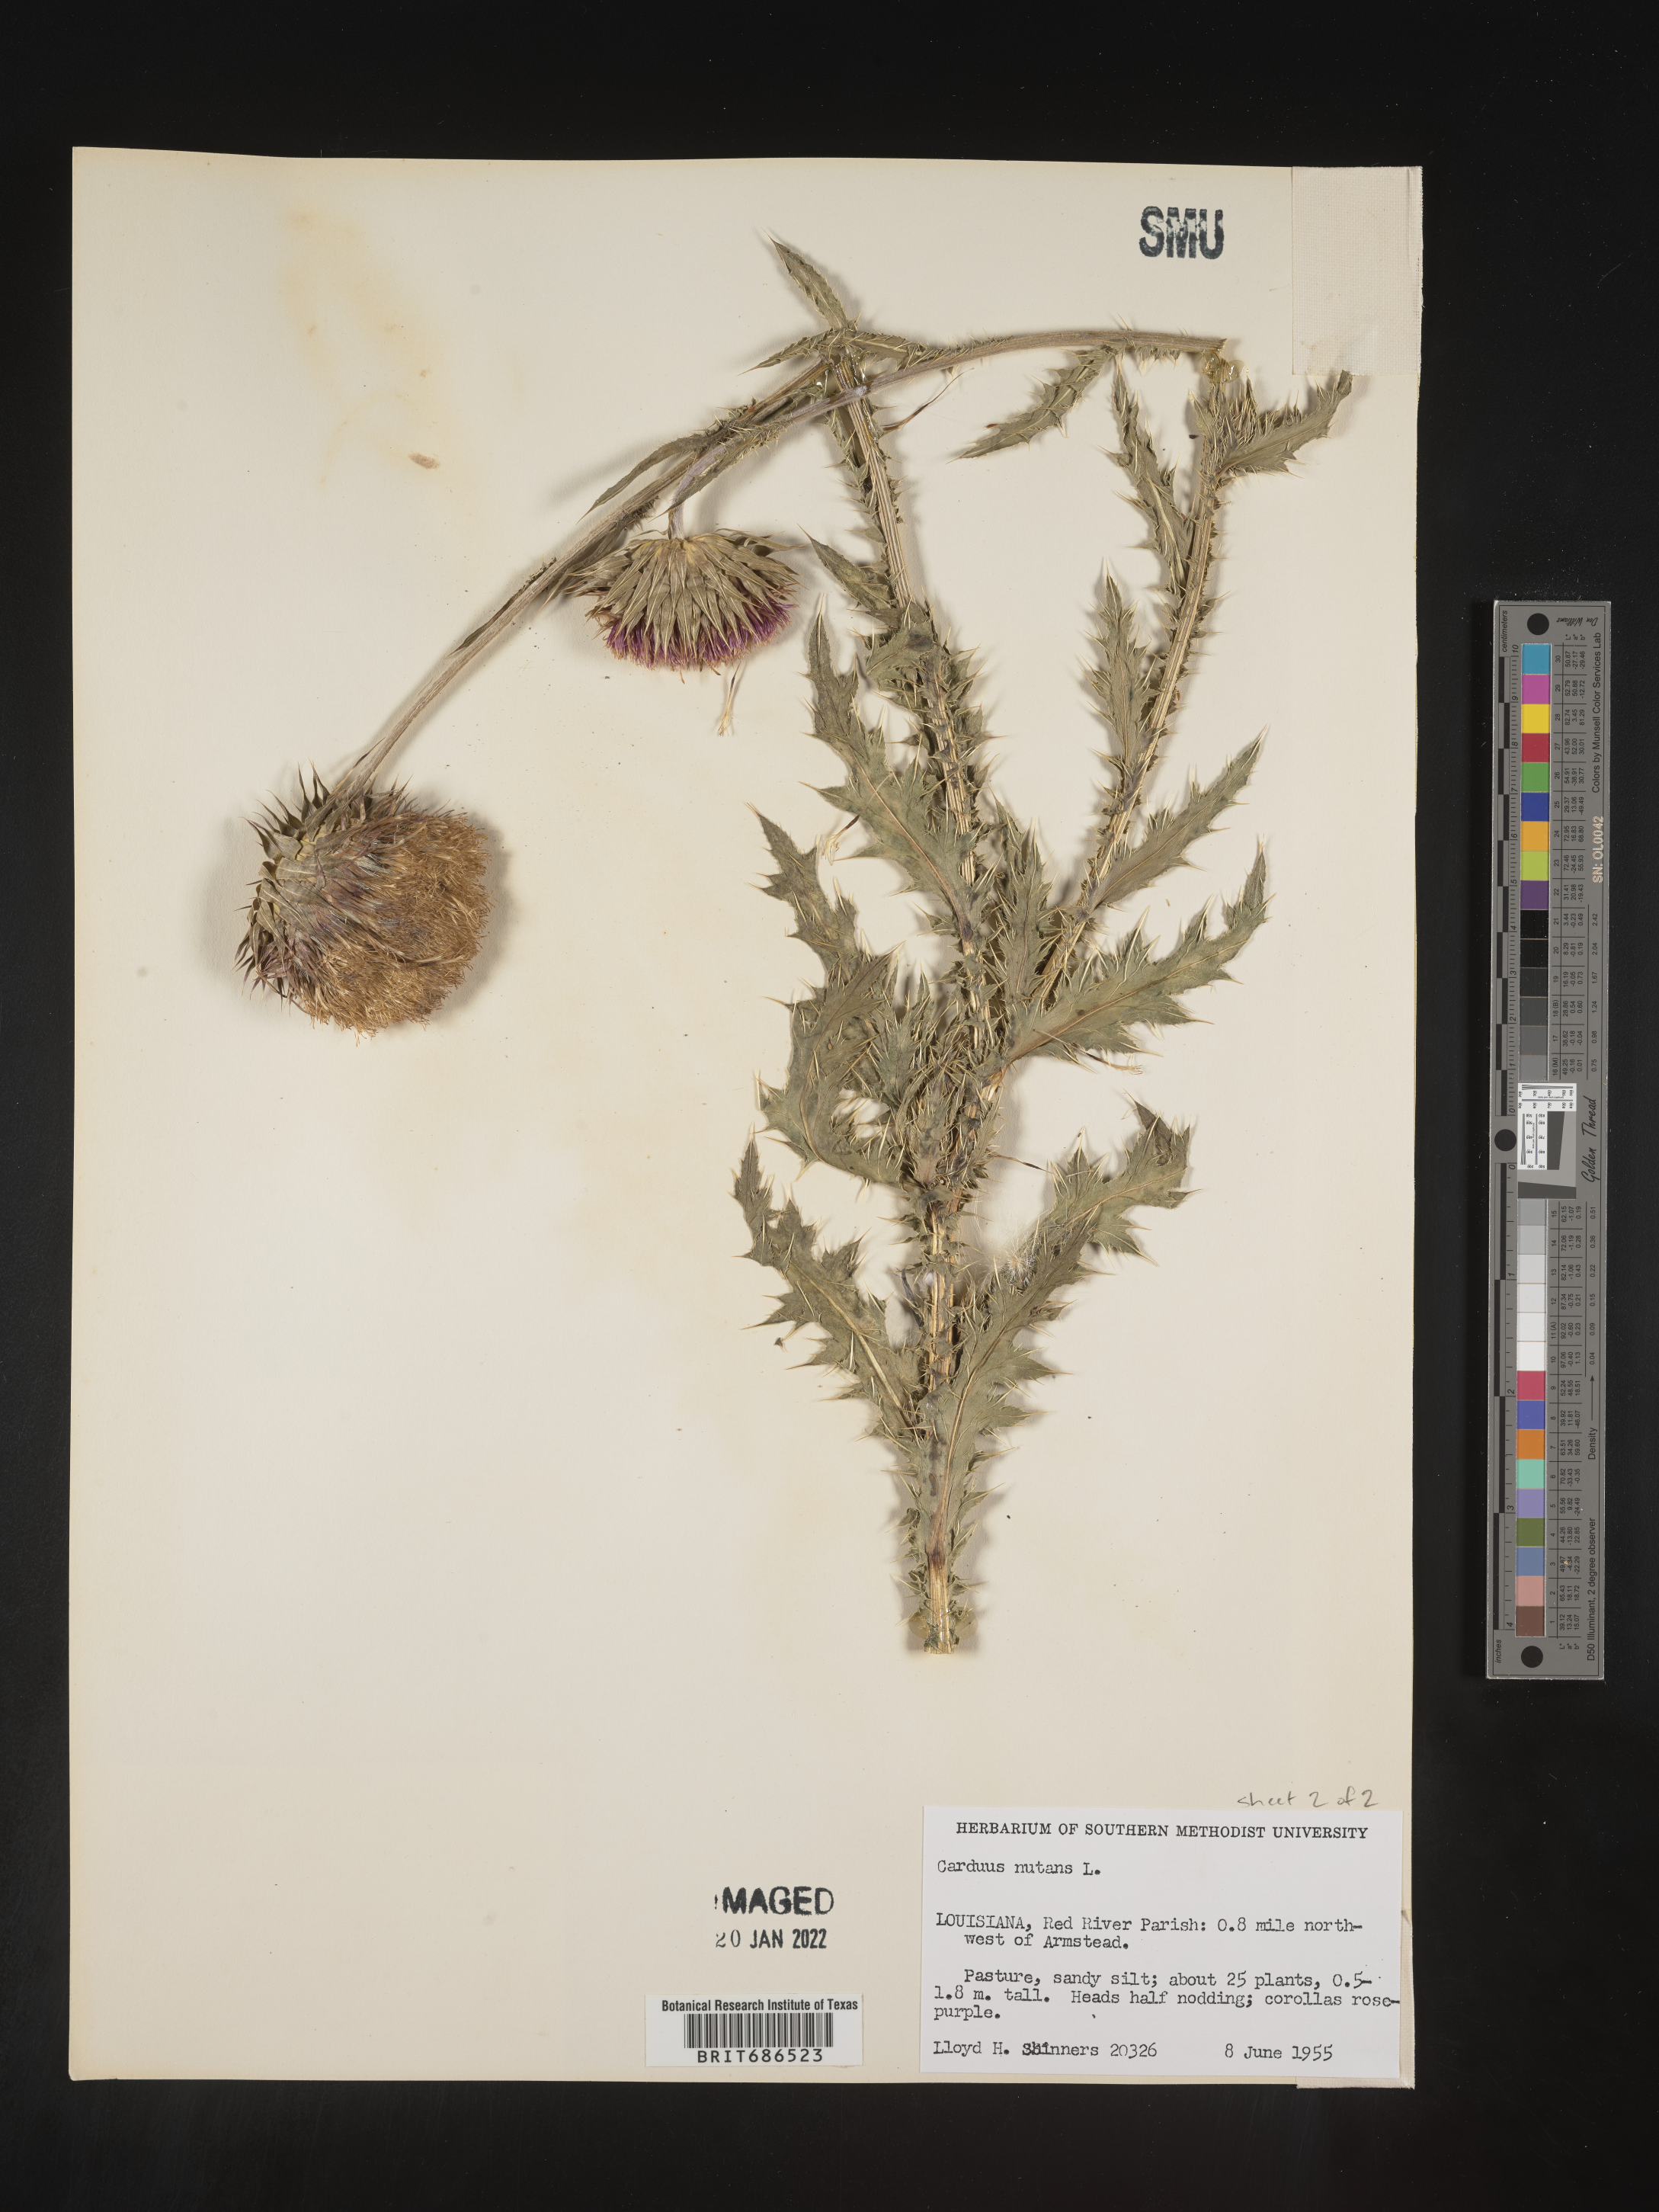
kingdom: Plantae
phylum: Tracheophyta
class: Magnoliopsida
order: Asterales
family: Asteraceae
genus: Carduus
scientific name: Carduus nutans
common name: Musk thistle
